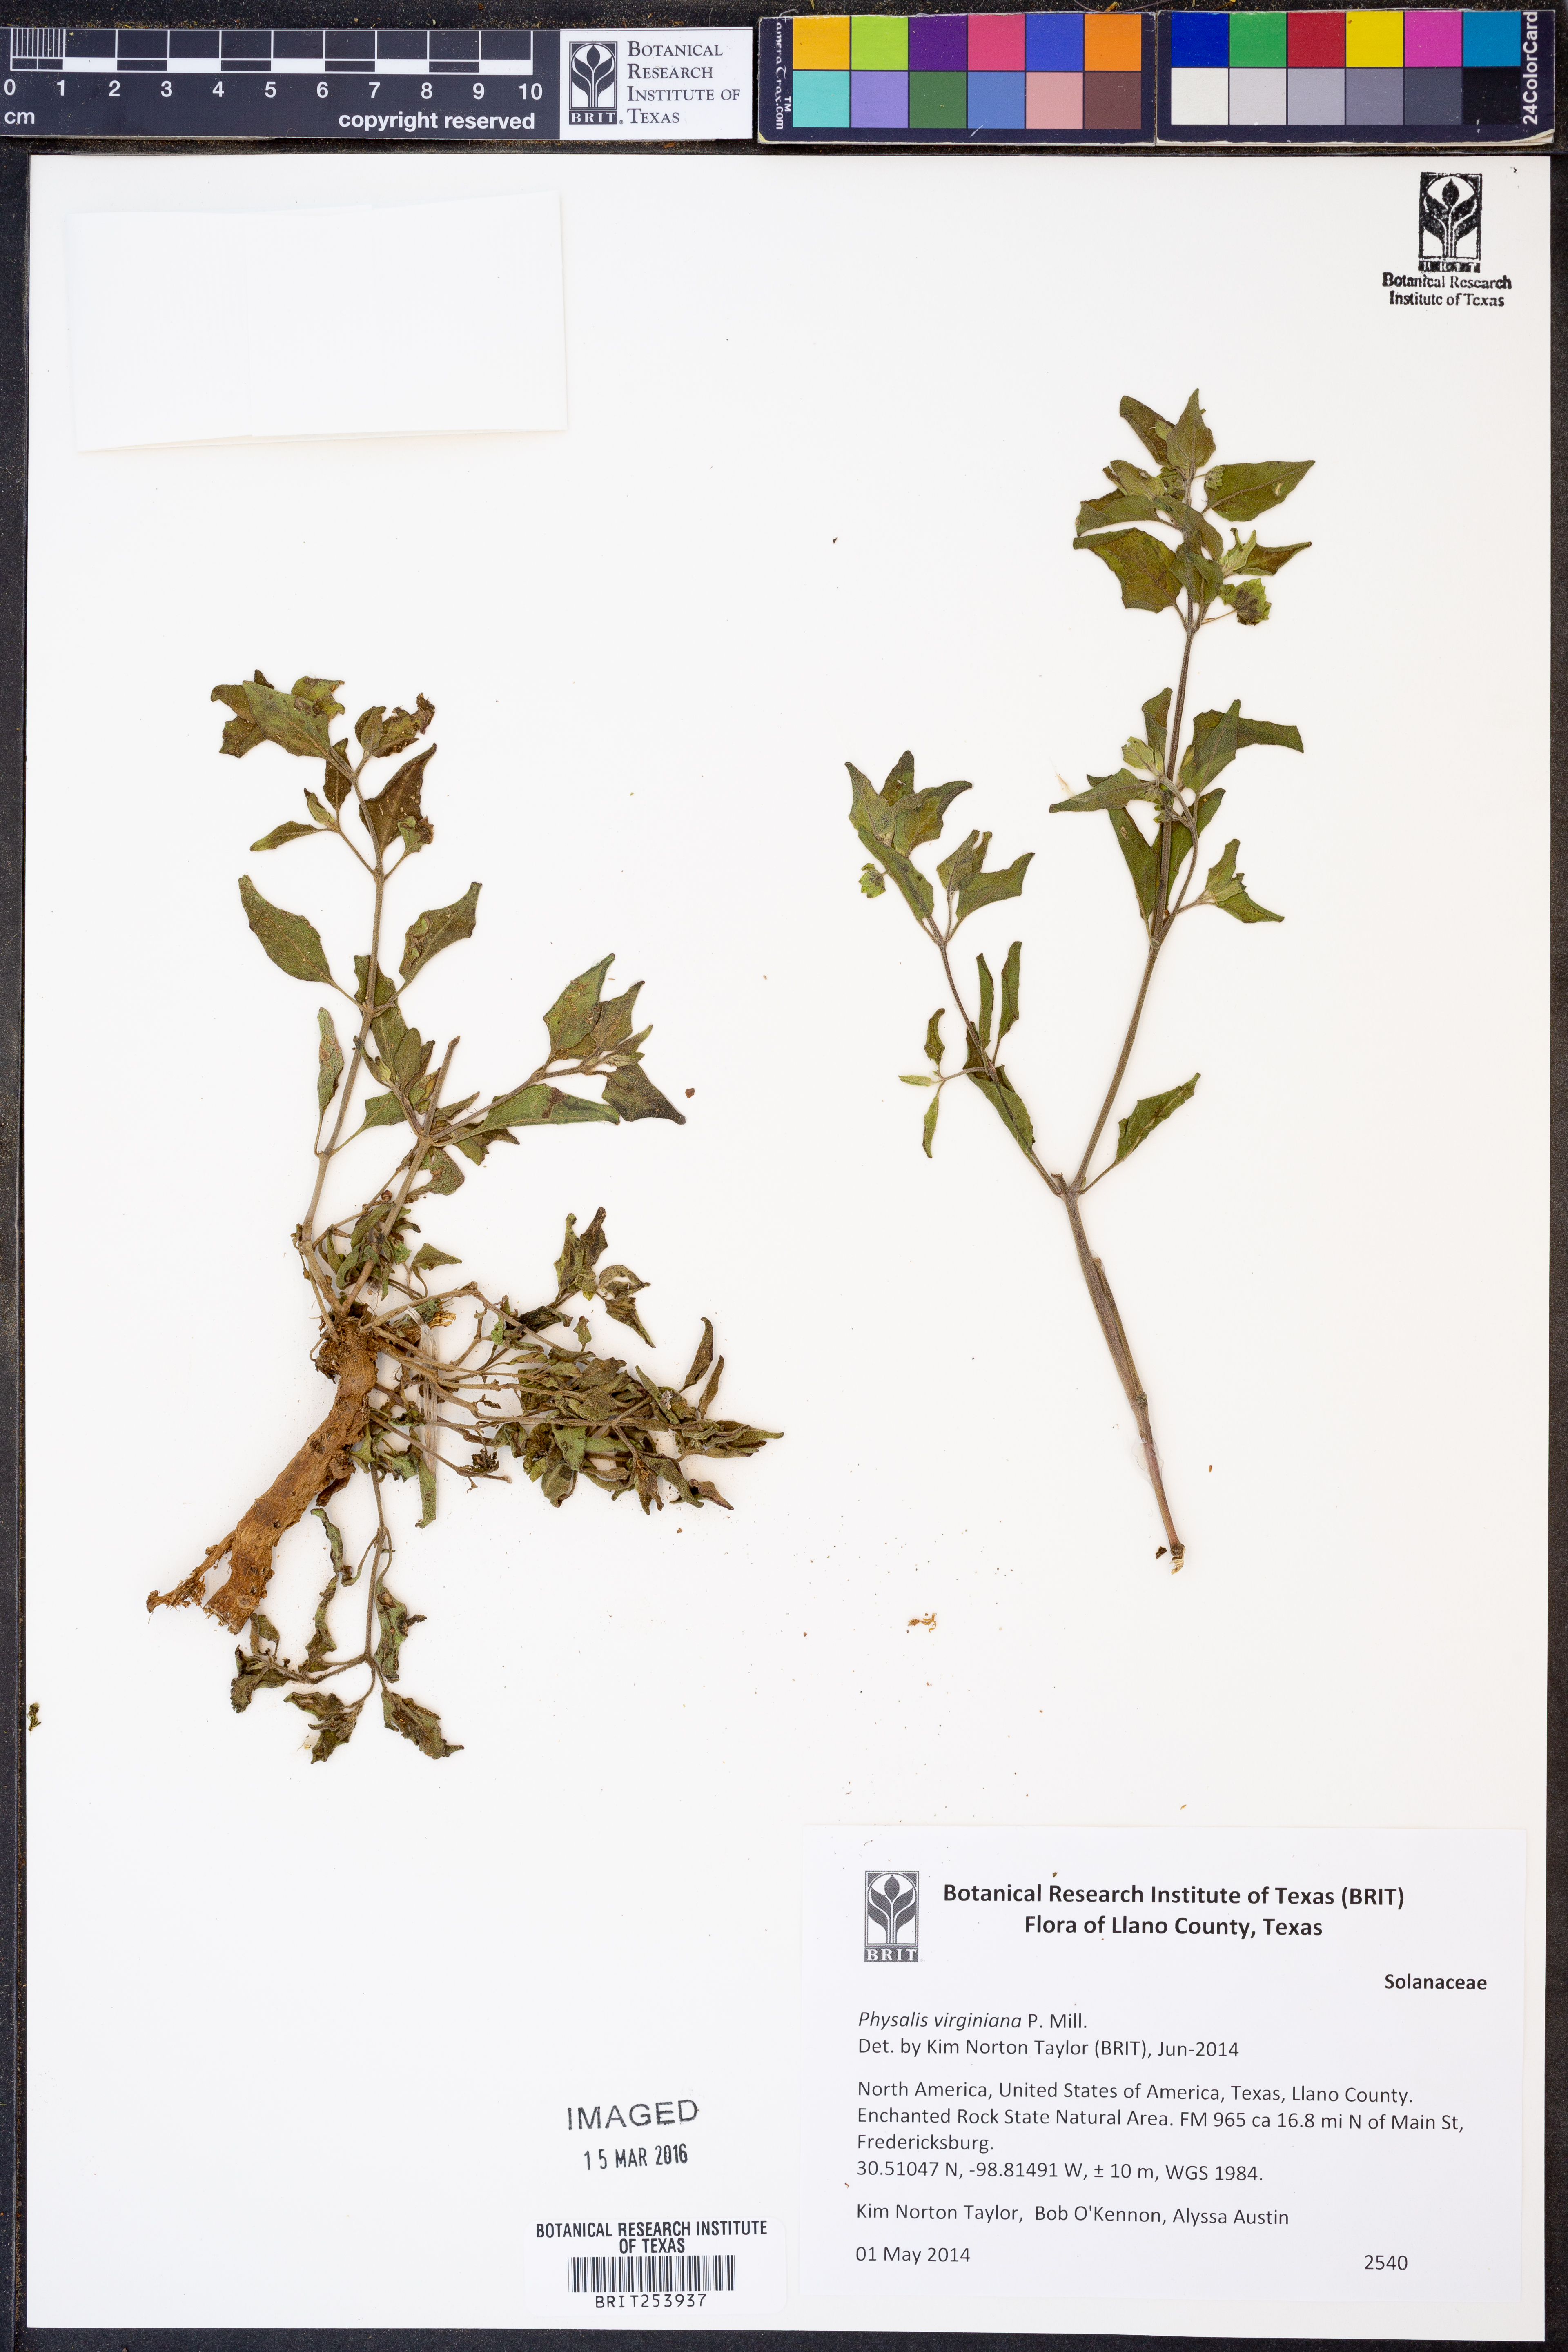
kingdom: Plantae
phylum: Tracheophyta
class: Magnoliopsida
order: Solanales
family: Solanaceae
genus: Physalis
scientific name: Physalis virginiana
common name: Virginia ground-cherry
